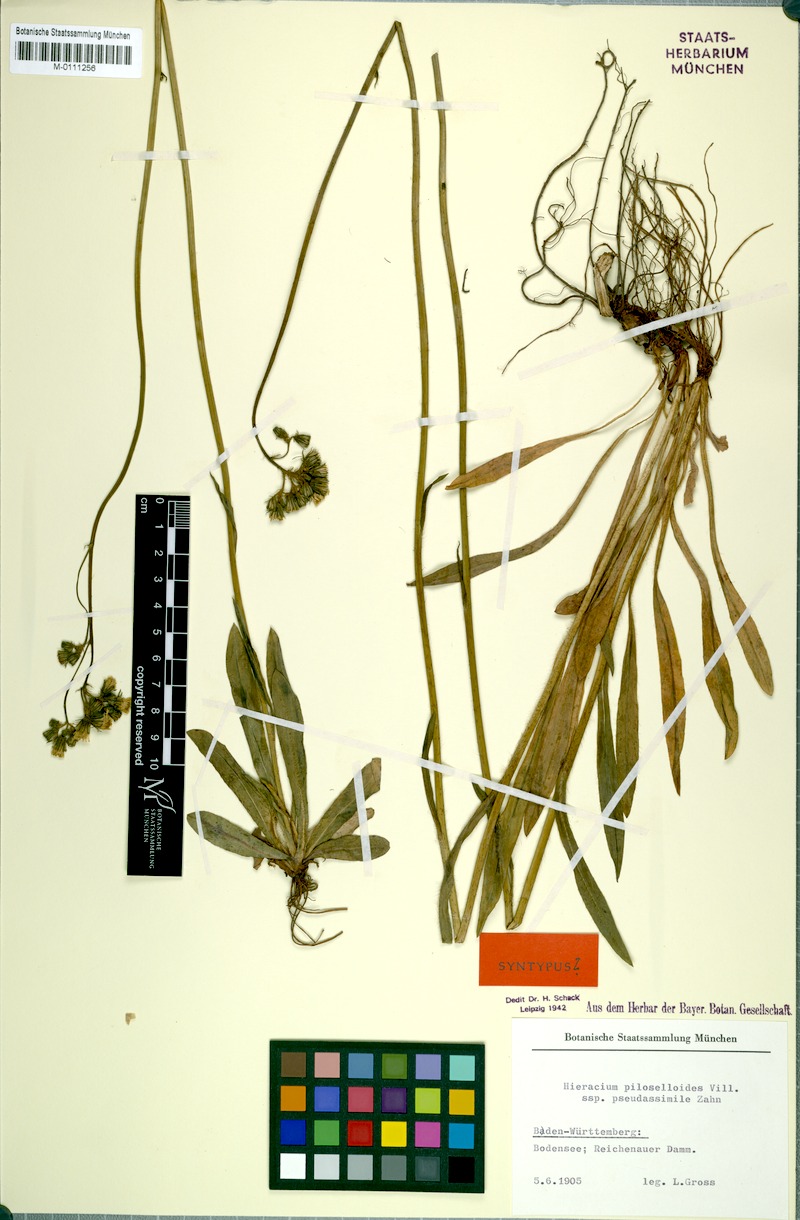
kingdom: Plantae
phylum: Tracheophyta
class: Magnoliopsida
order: Asterales
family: Asteraceae
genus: Pilosella
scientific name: Pilosella piloselloides
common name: Glaucous king-devil
